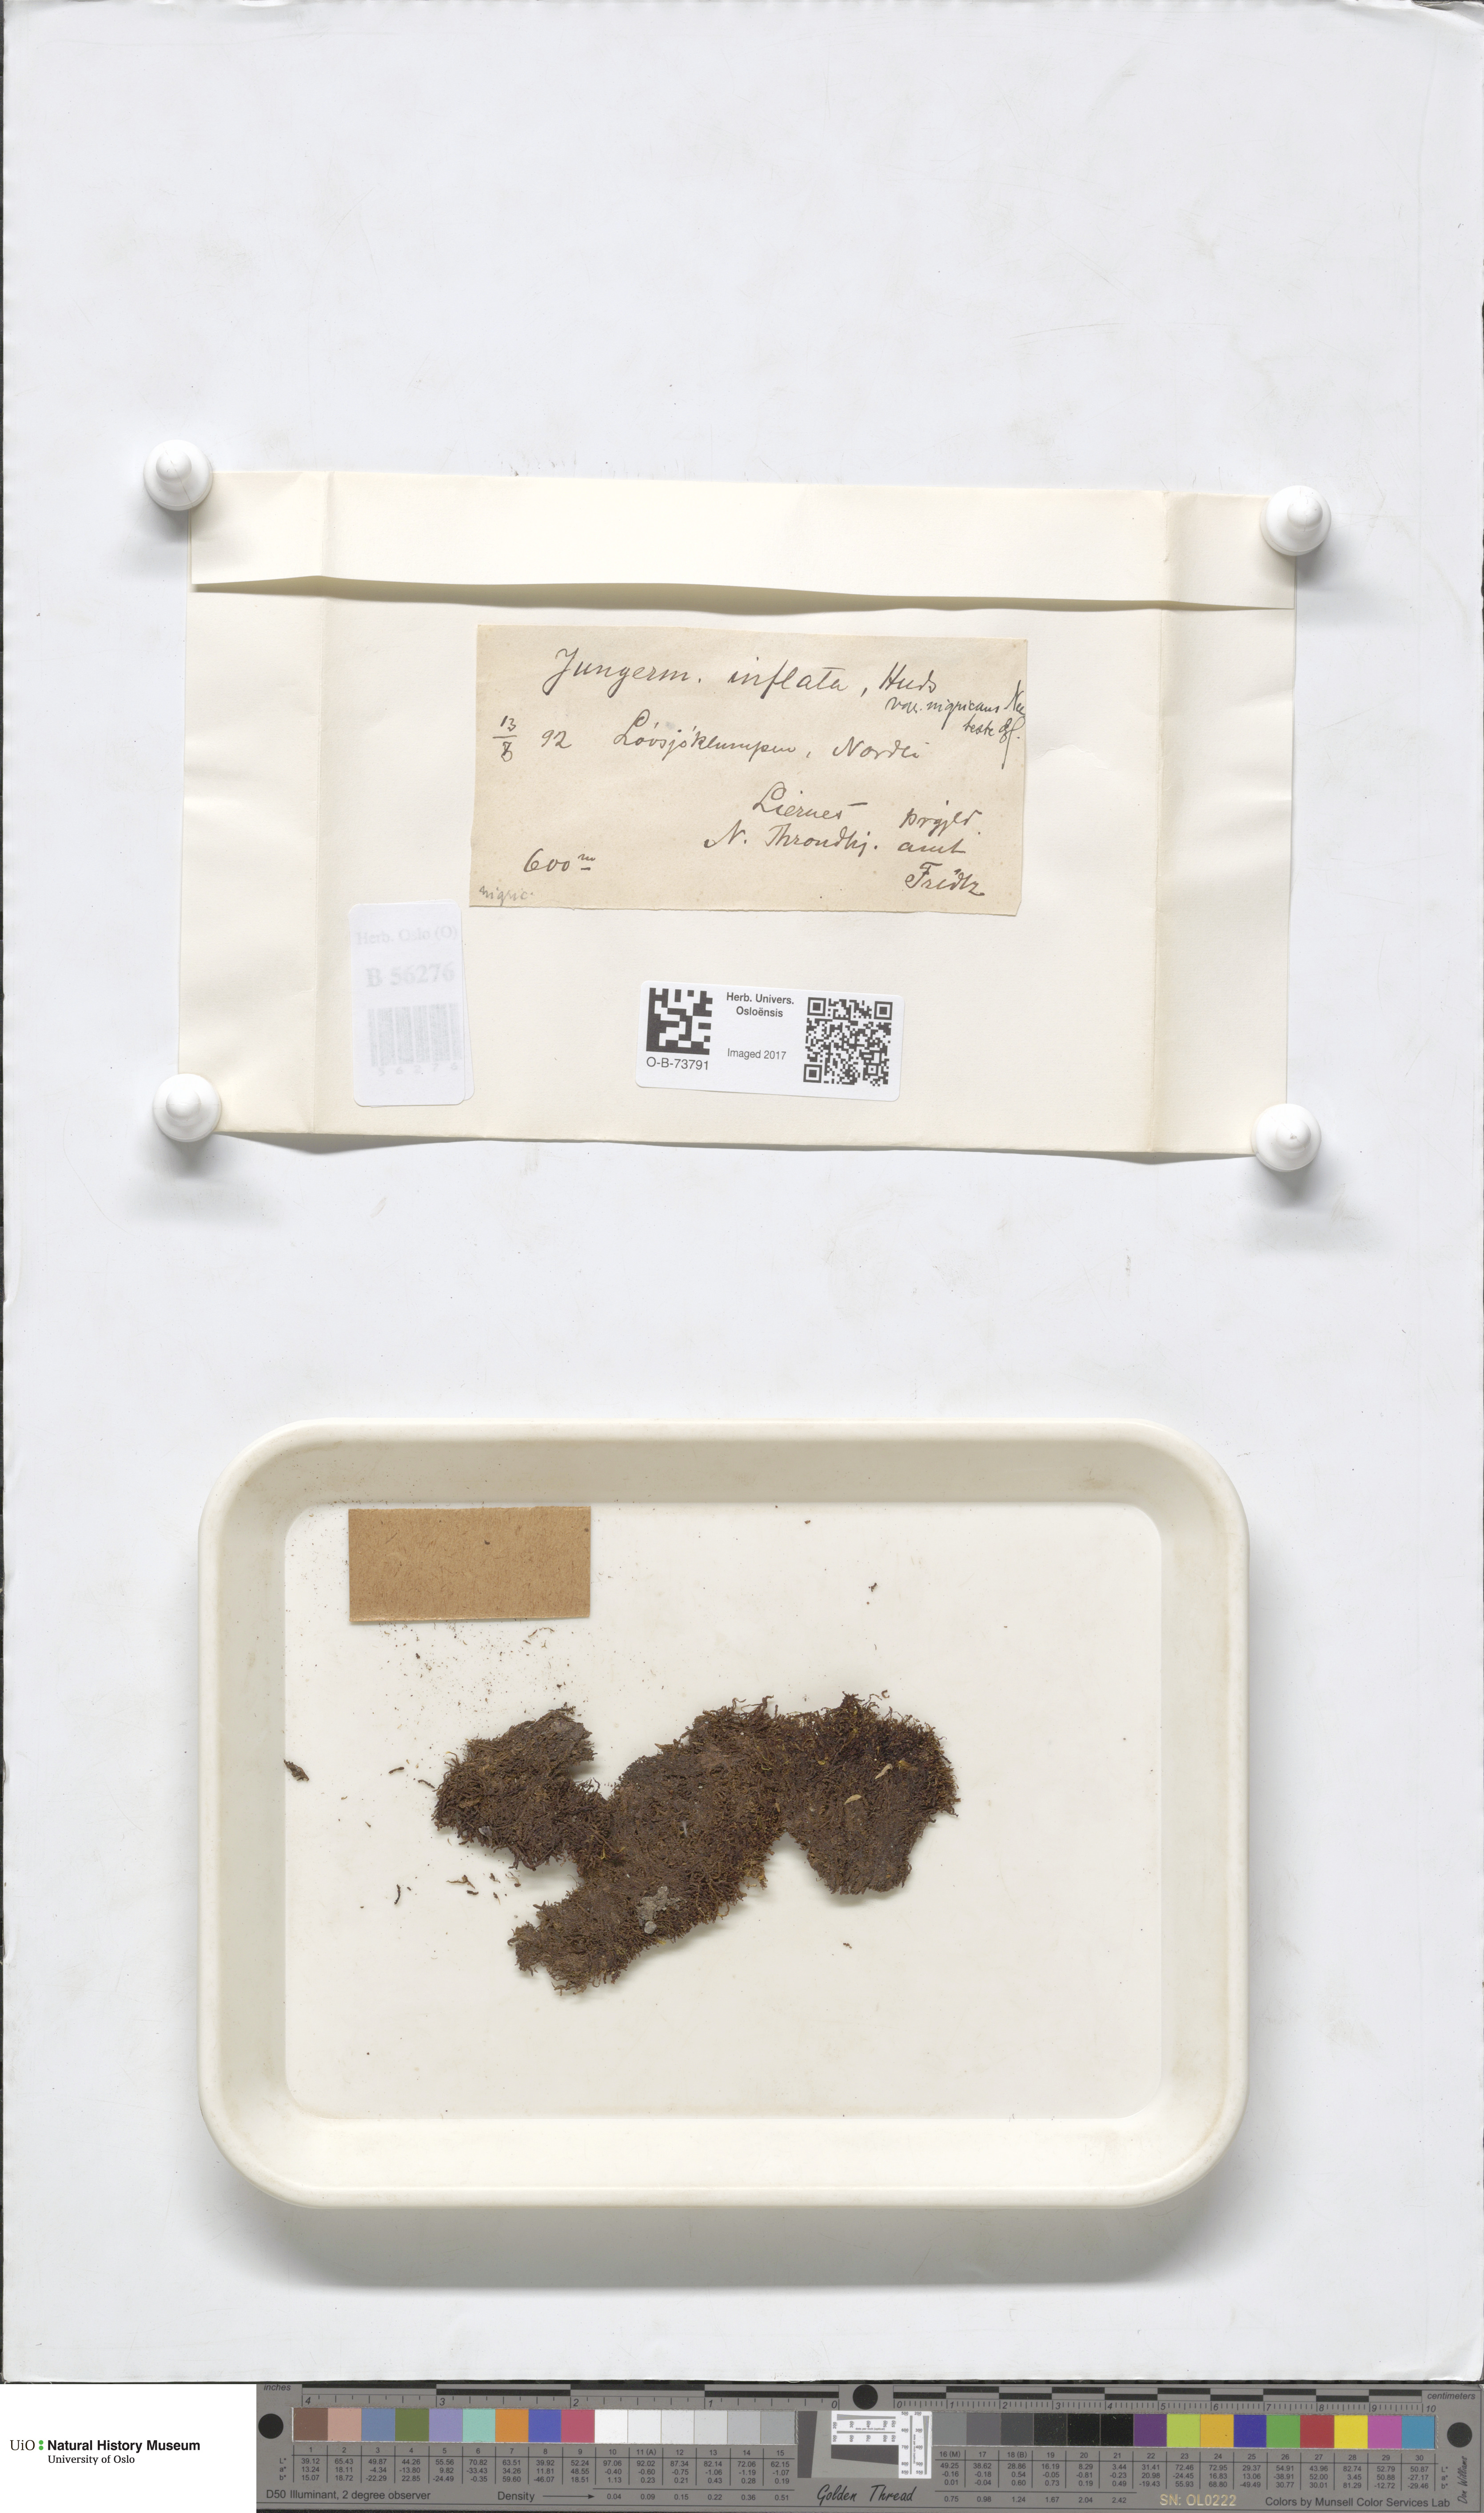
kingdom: Plantae
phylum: Marchantiophyta
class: Jungermanniopsida
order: Jungermanniales
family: Anastrophyllaceae
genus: Gymnocolea
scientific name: Gymnocolea inflata
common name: Inflated notchwort
